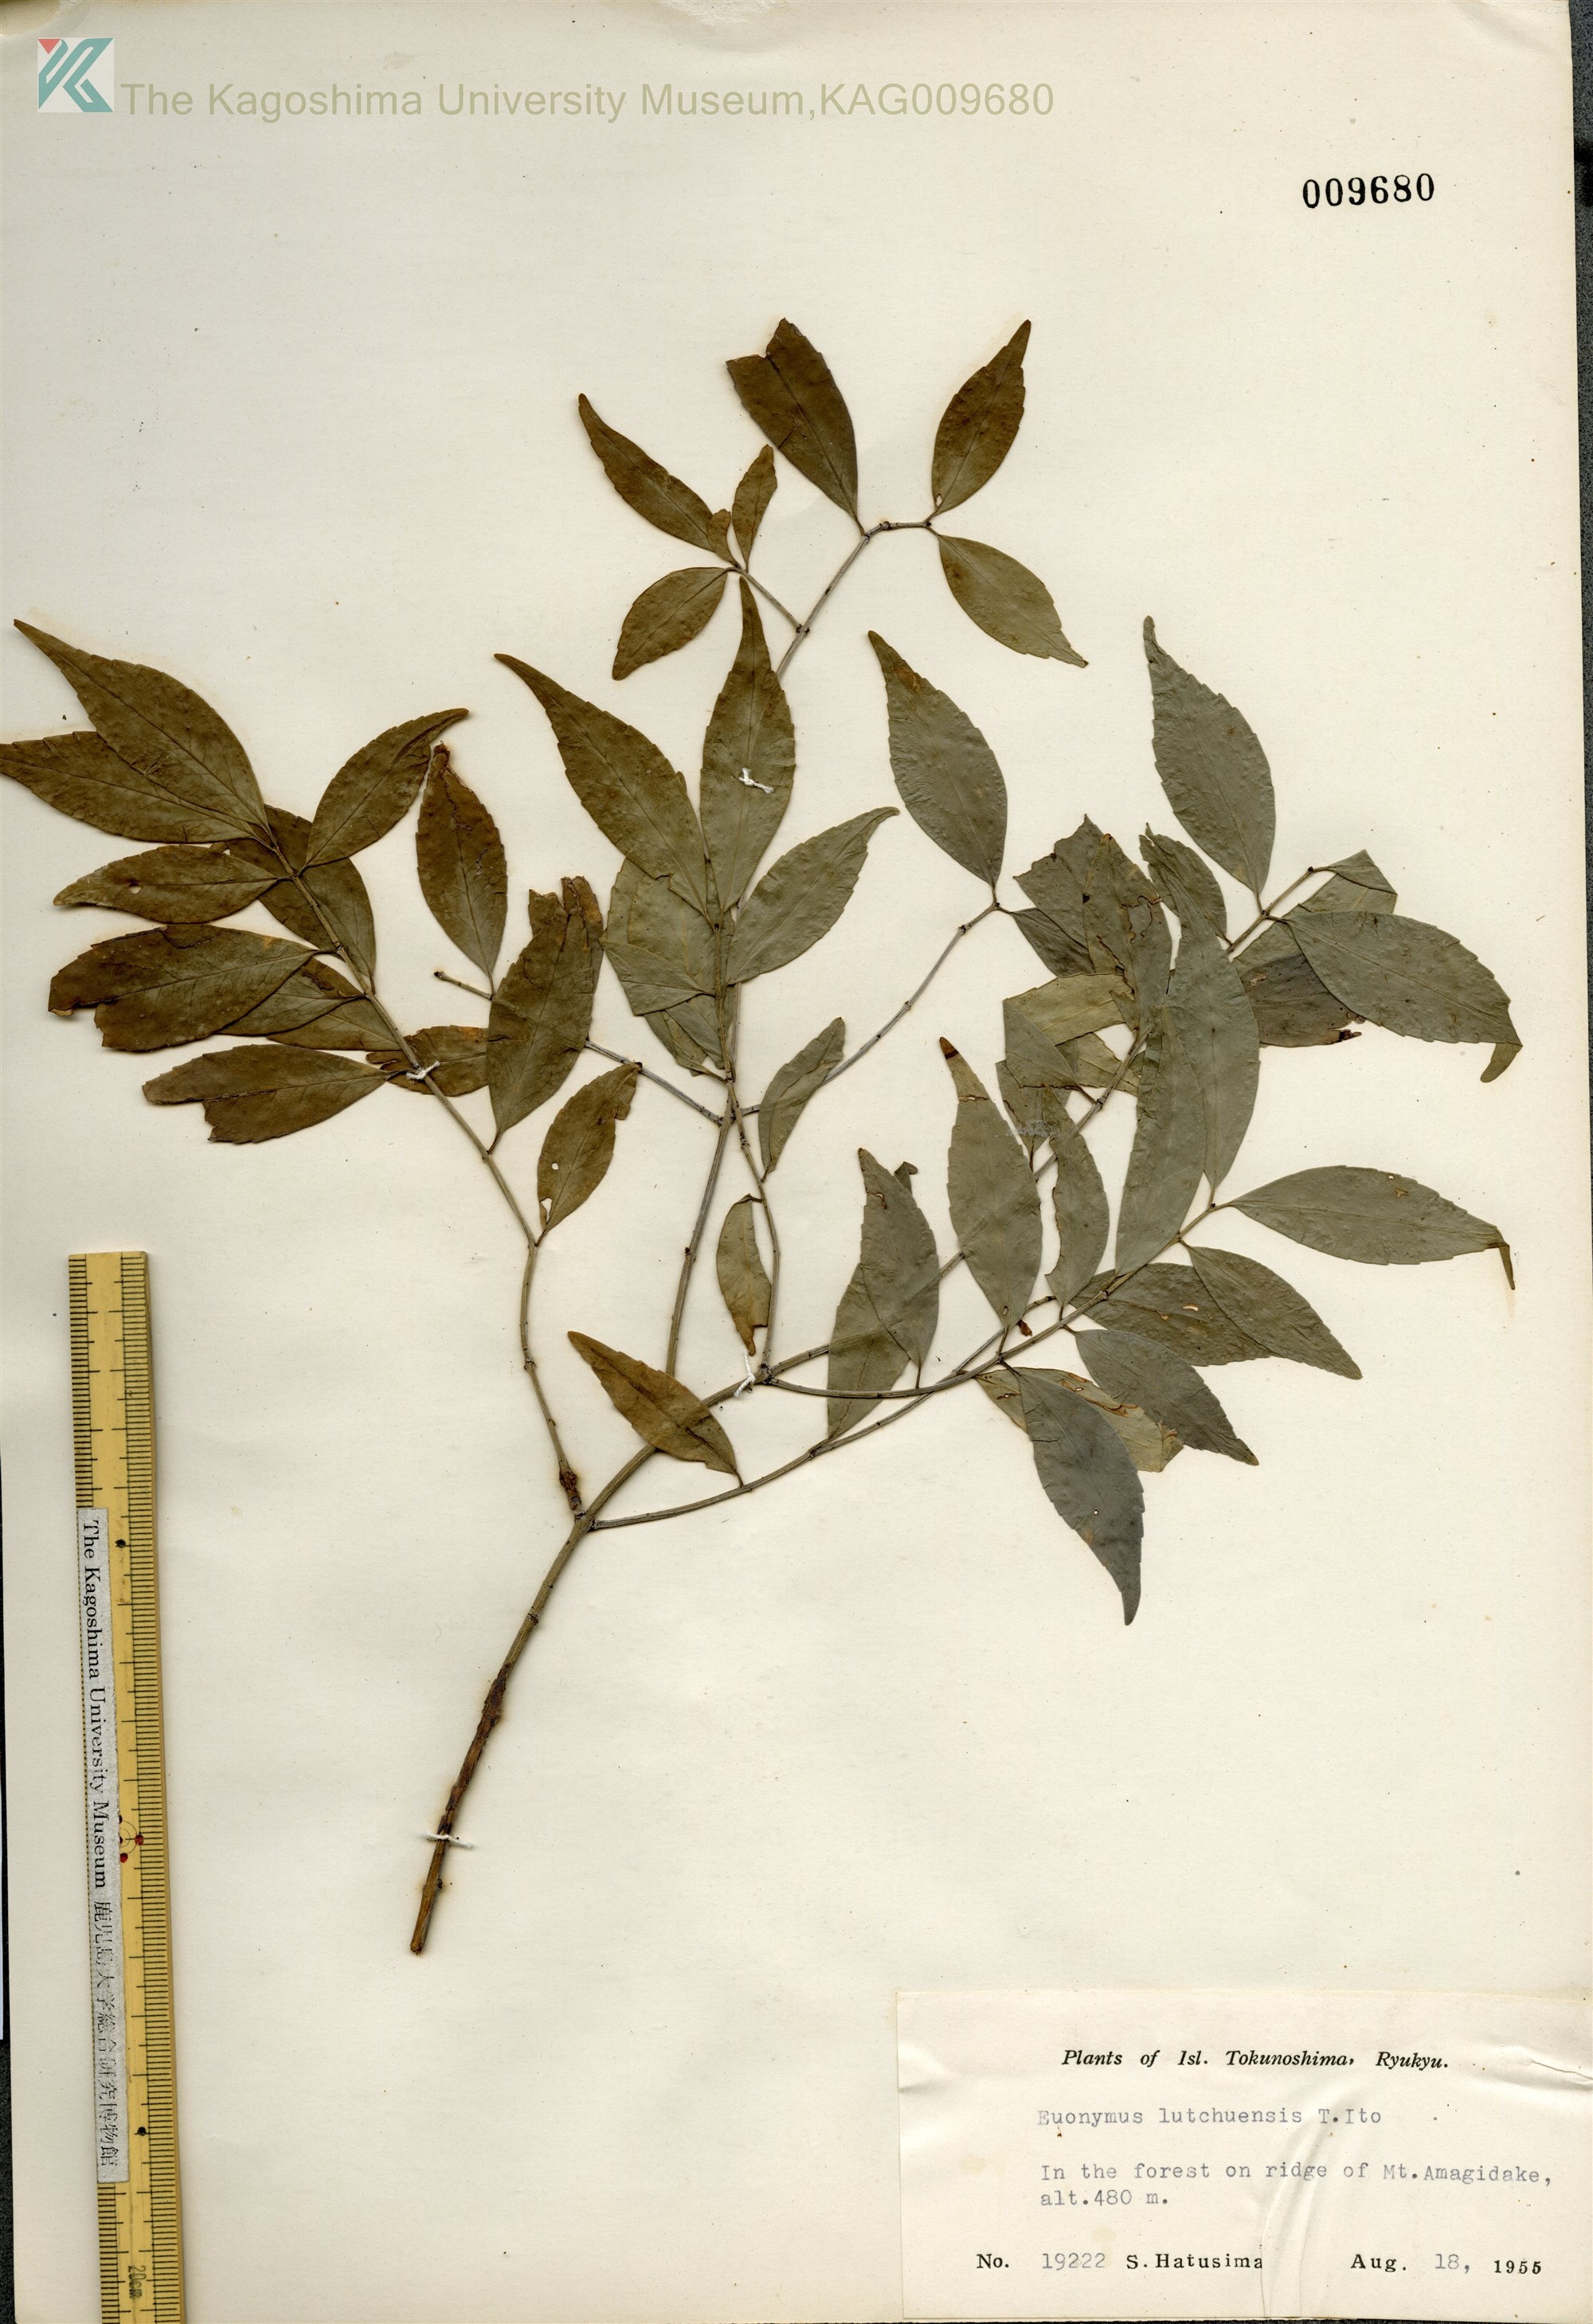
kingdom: Plantae
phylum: Tracheophyta
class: Magnoliopsida
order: Celastrales
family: Celastraceae
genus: Euonymus
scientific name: Euonymus lutchuensis
